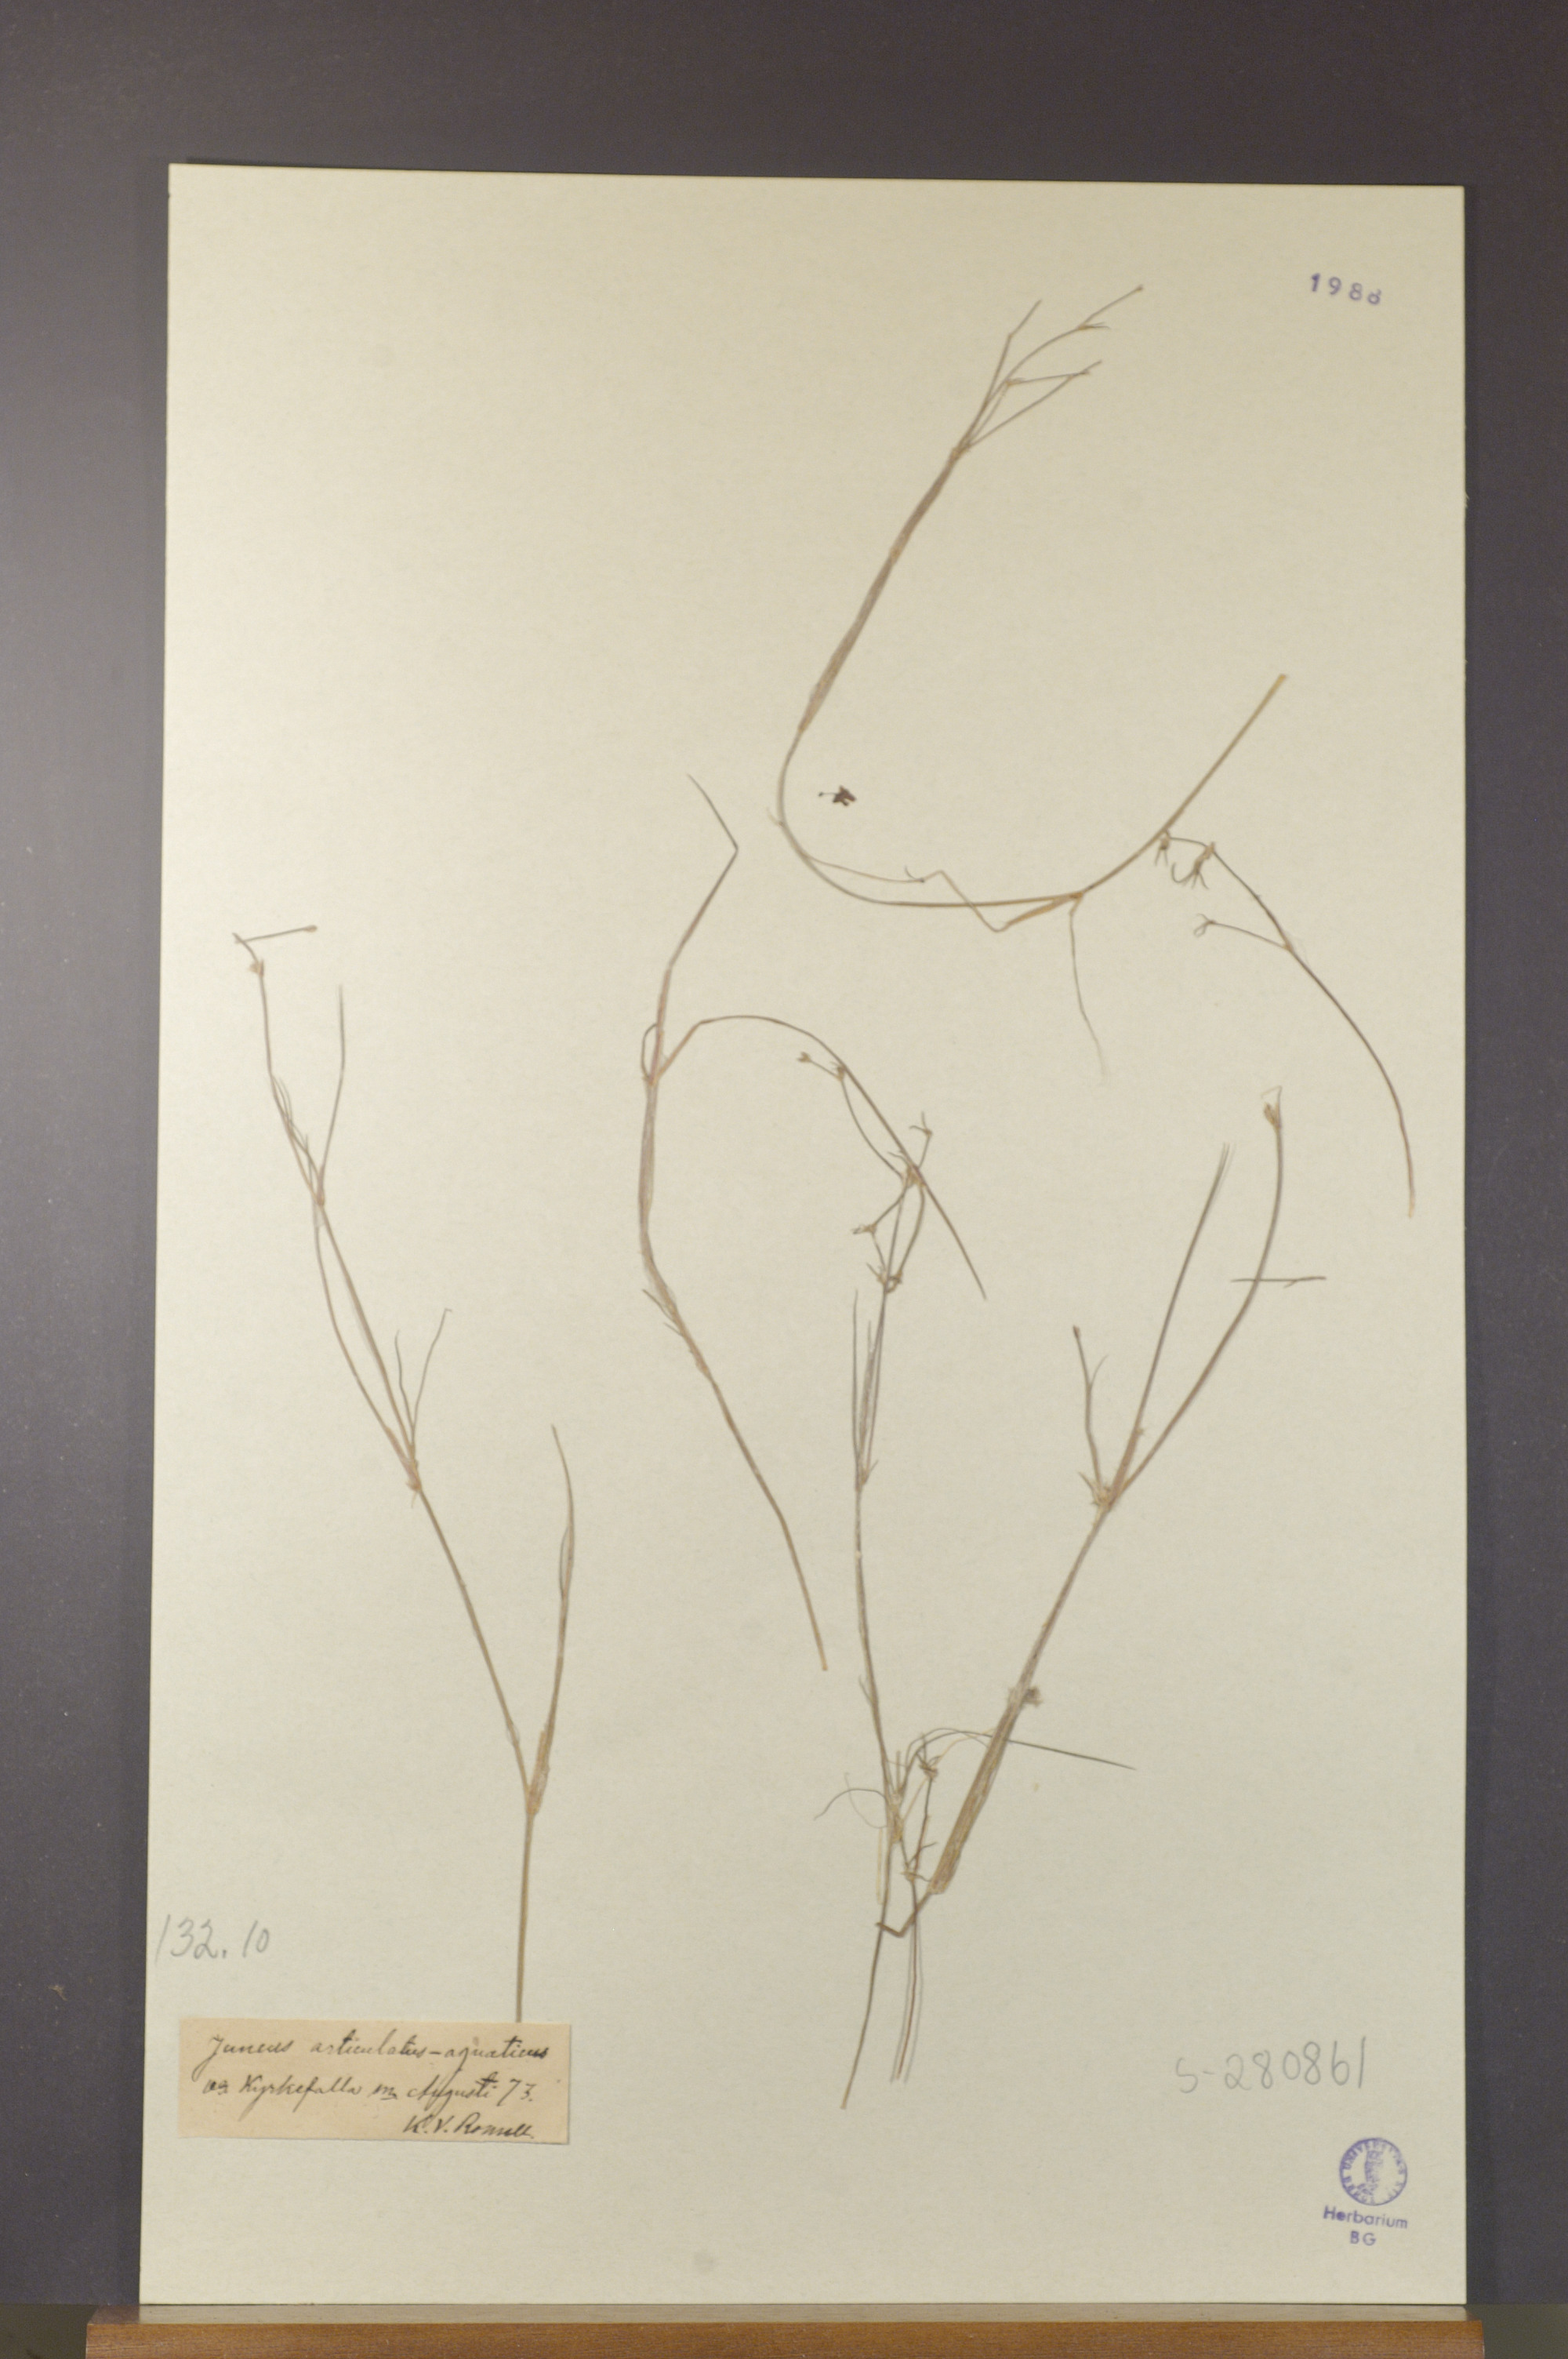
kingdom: Plantae
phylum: Tracheophyta
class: Liliopsida
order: Poales
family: Juncaceae
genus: Juncus
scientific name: Juncus articulatus
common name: Jointed rush
